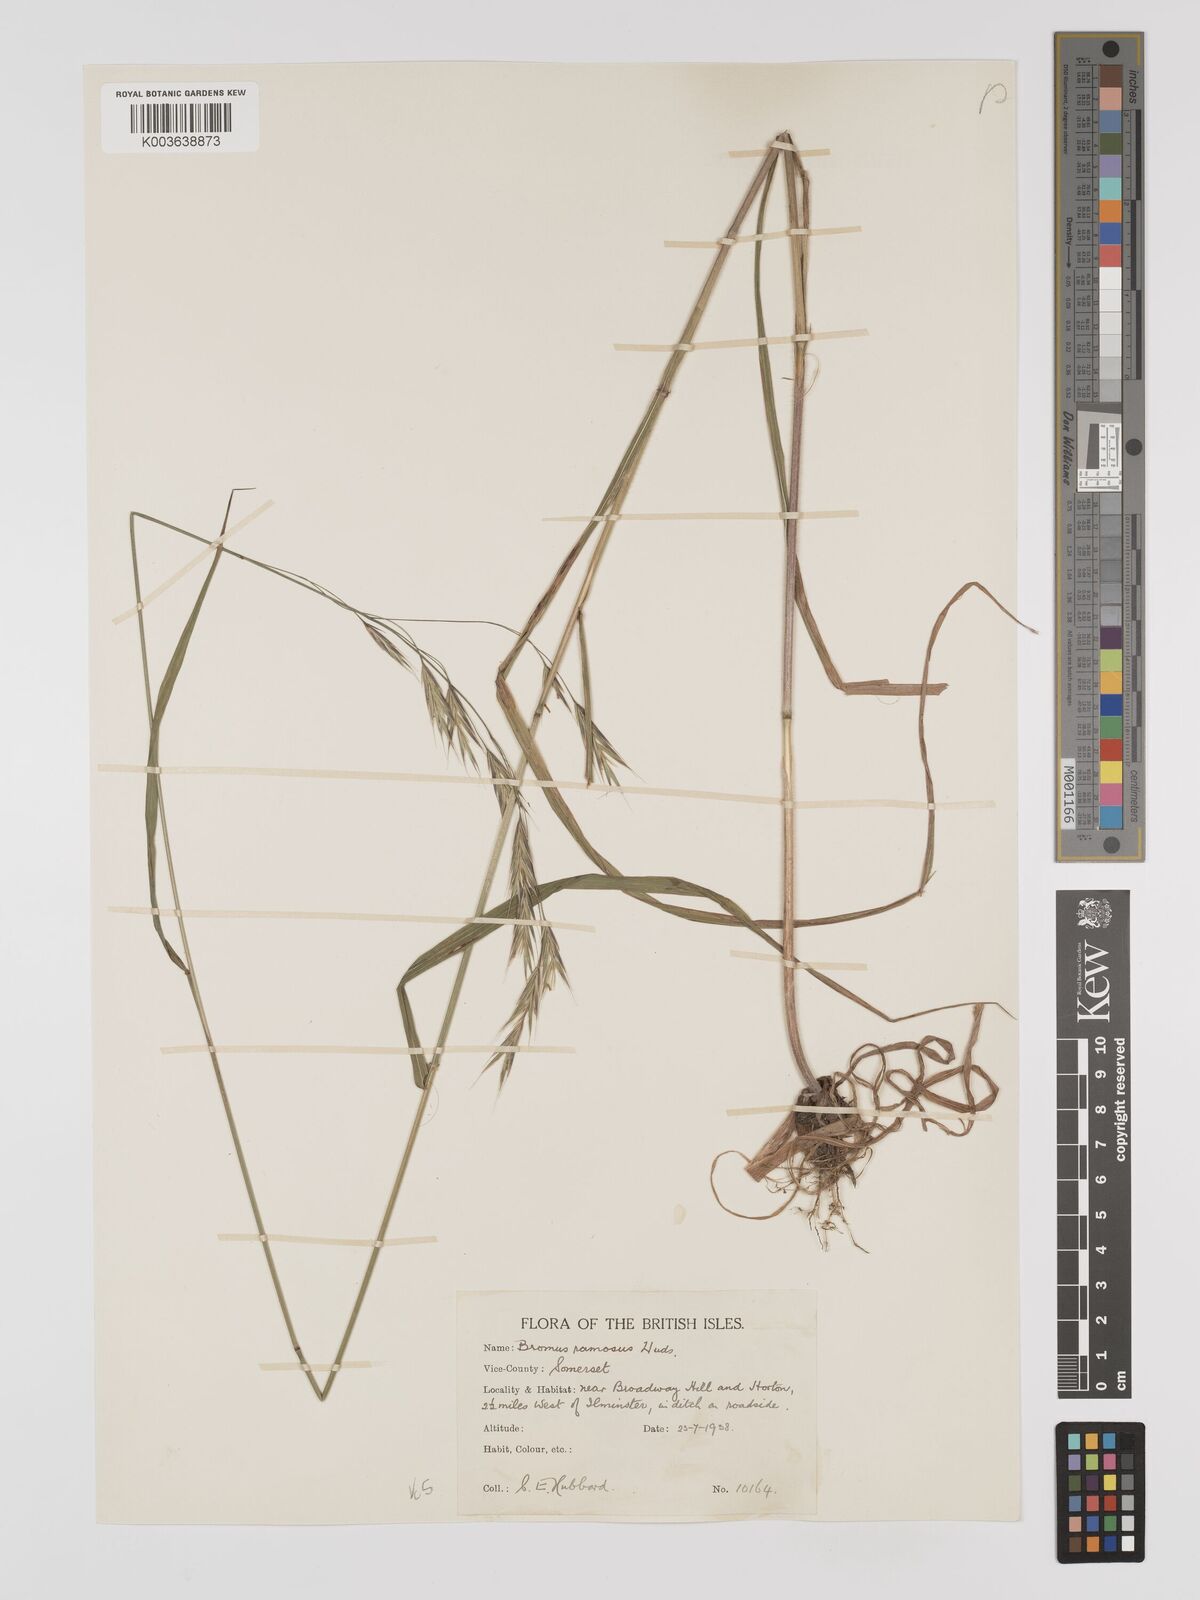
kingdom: Plantae
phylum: Tracheophyta
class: Liliopsida
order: Poales
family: Poaceae
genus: Brachypodium
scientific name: Brachypodium retusum
